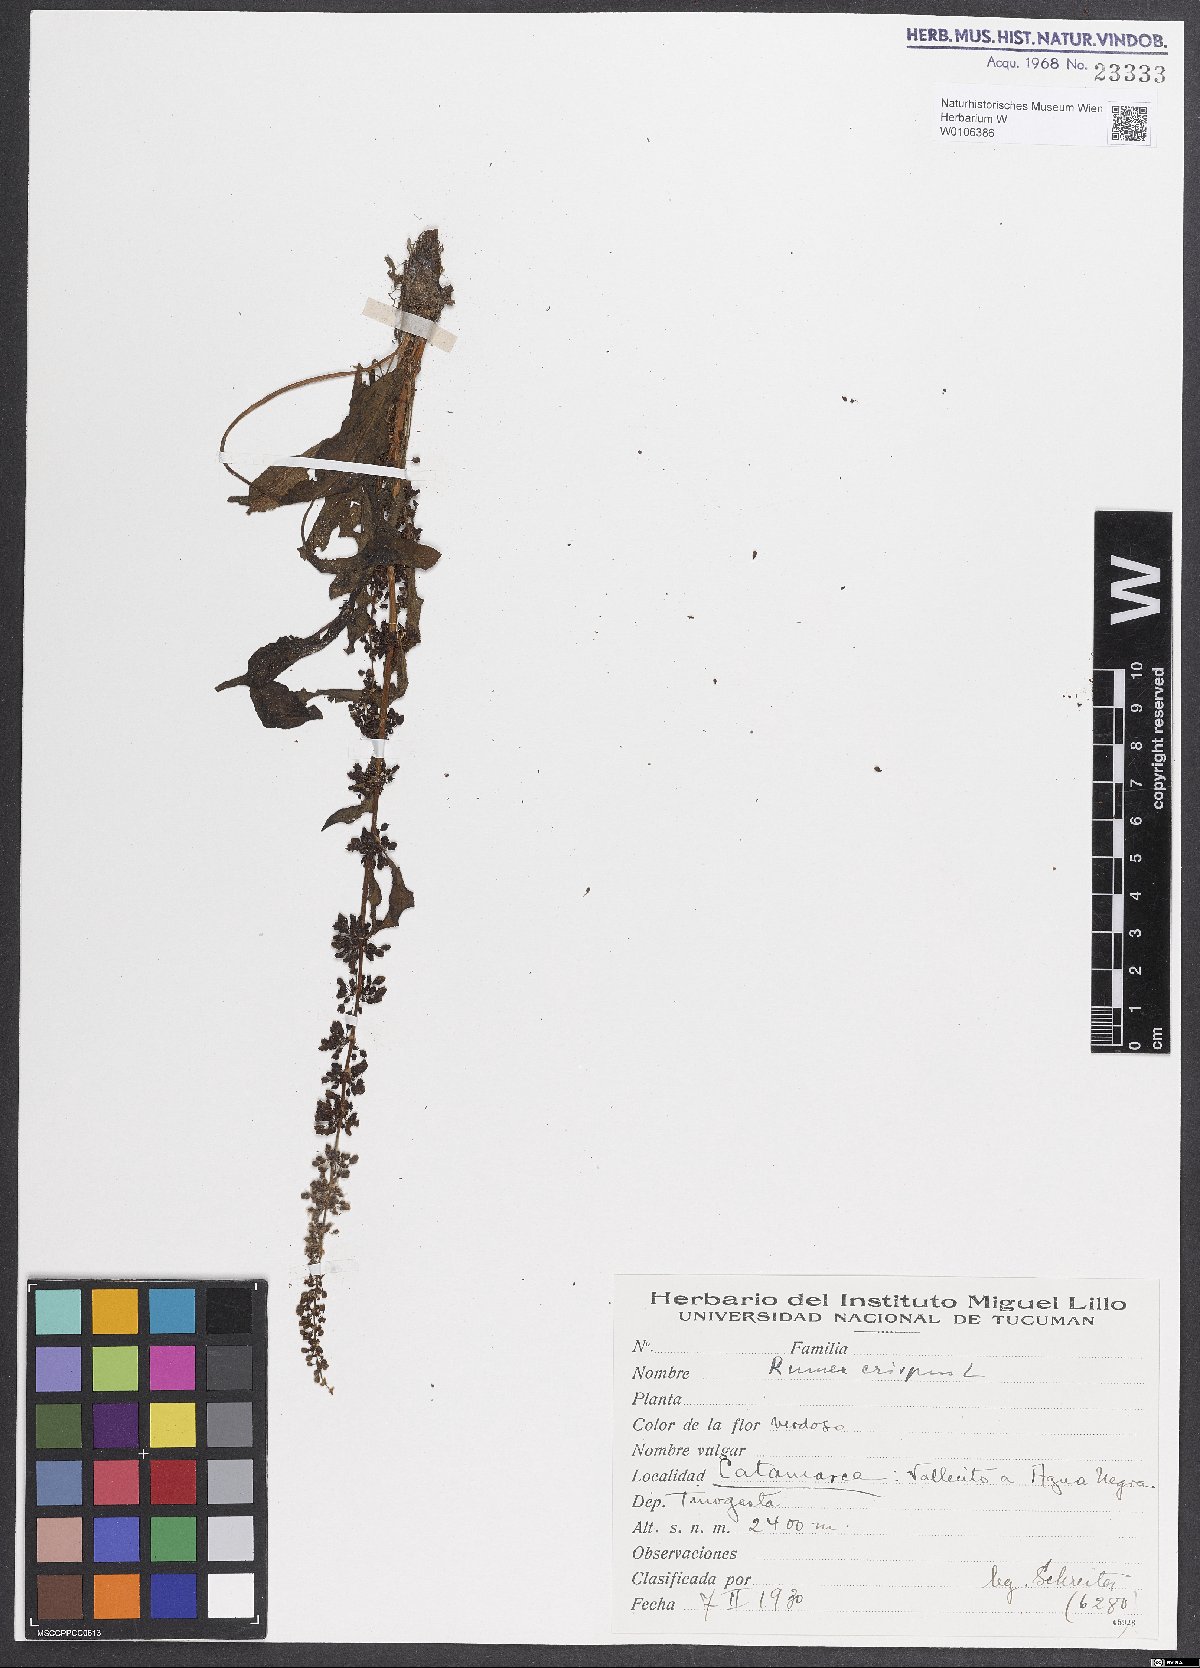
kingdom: Plantae
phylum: Tracheophyta
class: Magnoliopsida
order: Caryophyllales
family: Polygonaceae
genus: Rumex
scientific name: Rumex crispus
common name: Curled dock
